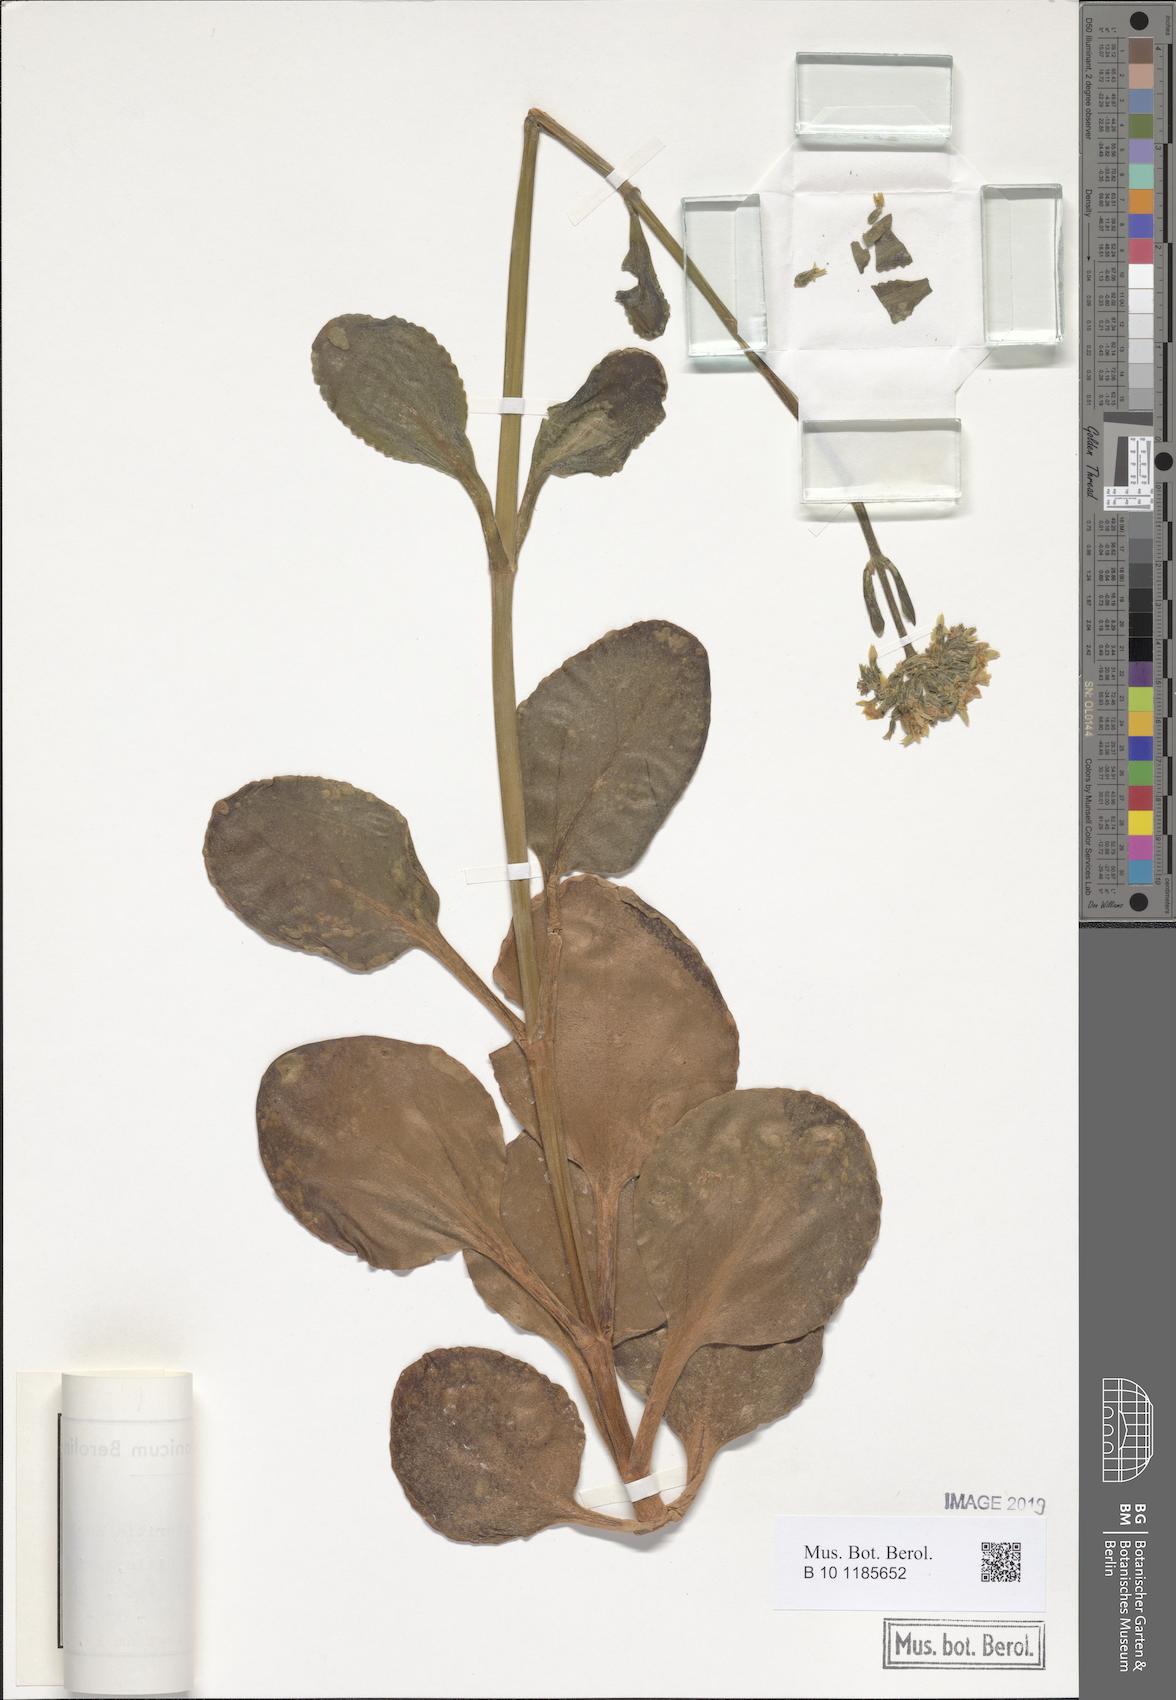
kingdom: Plantae
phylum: Tracheophyta
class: Magnoliopsida
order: Saxifragales
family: Crassulaceae
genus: Kalanchoe
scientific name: Kalanchoe lateritia
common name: Kalanchoe
